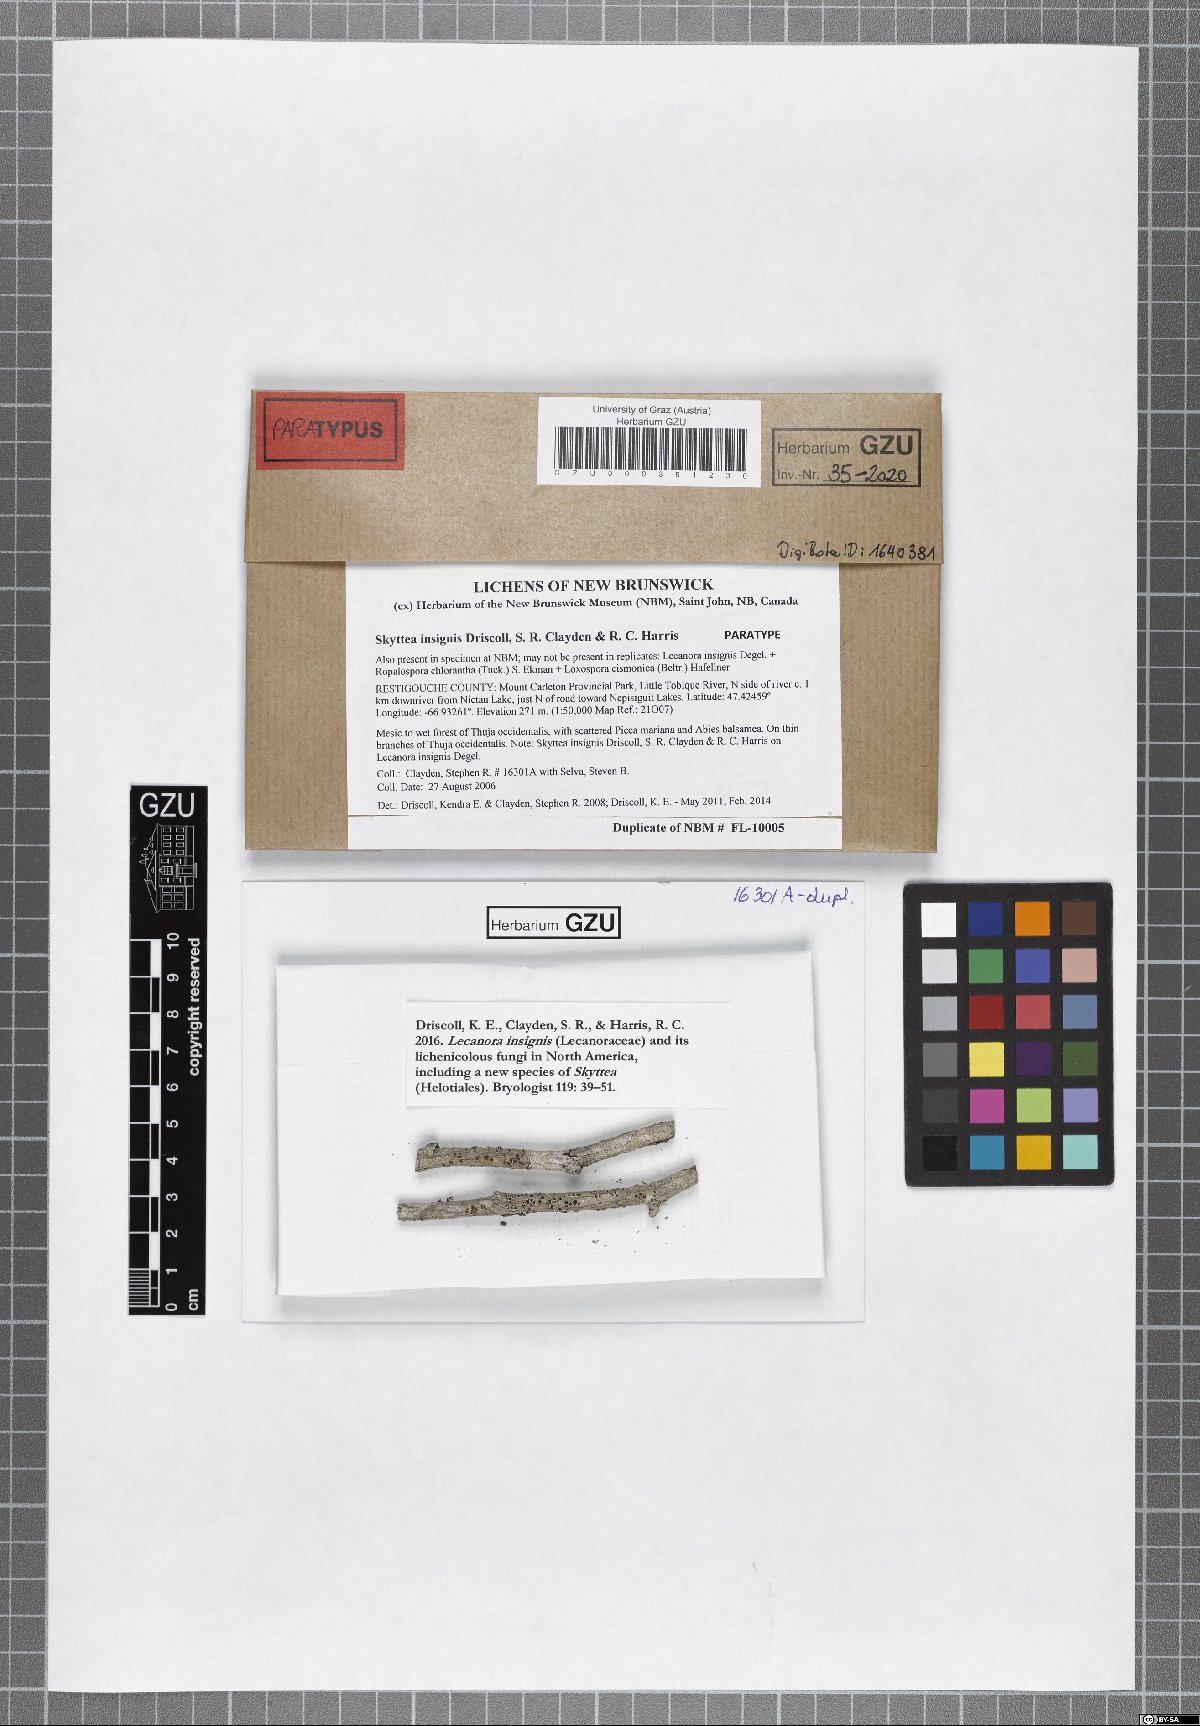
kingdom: Fungi
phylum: Ascomycota
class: Leotiomycetes
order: Helotiales
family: Cordieritidaceae
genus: Skyttea
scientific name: Skyttea insignis
